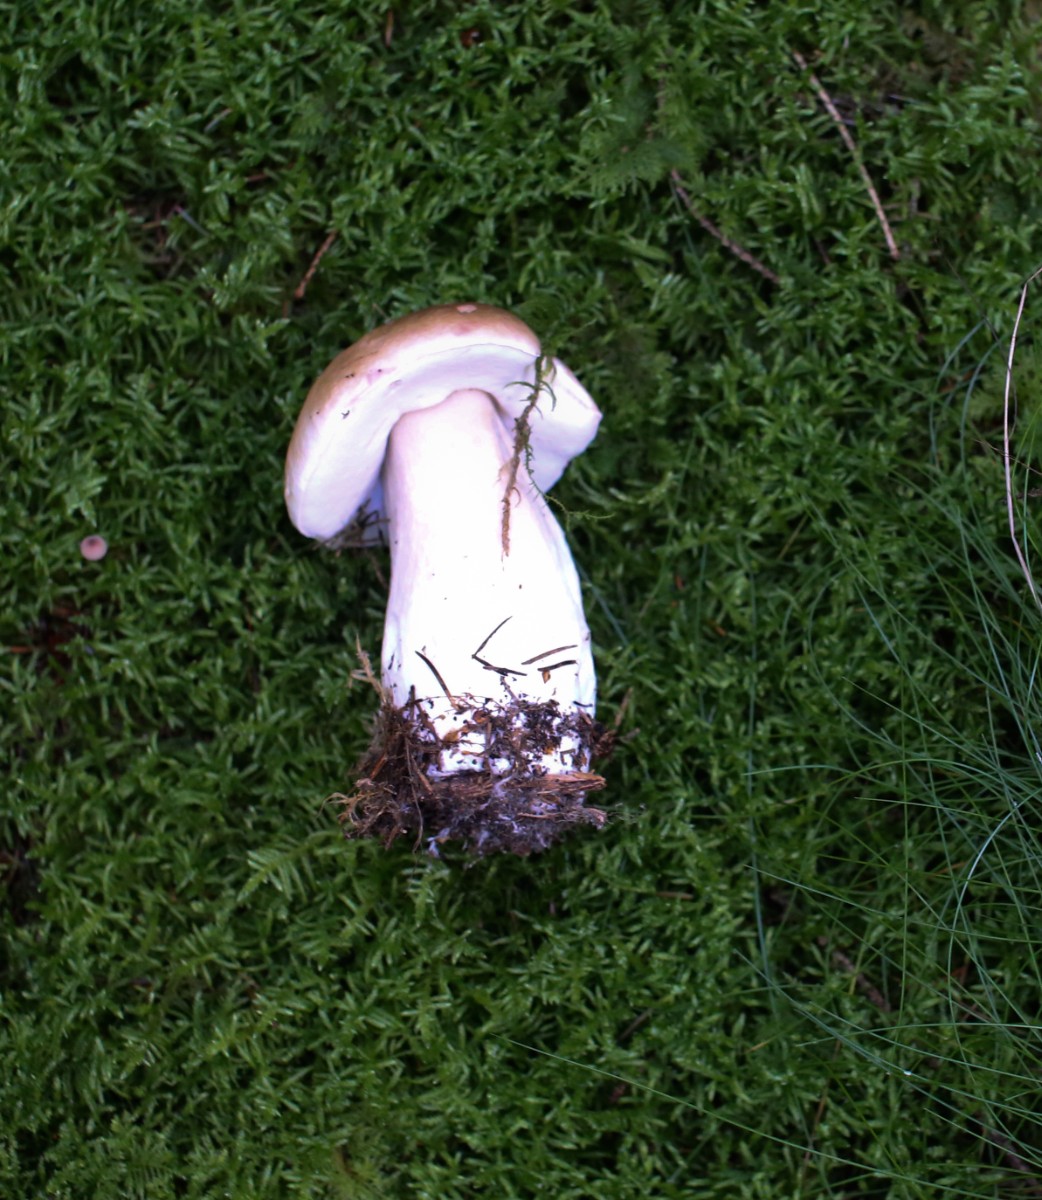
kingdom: Fungi
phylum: Basidiomycota
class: Agaricomycetes
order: Boletales
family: Boletaceae
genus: Boletus
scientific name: Boletus edulis
